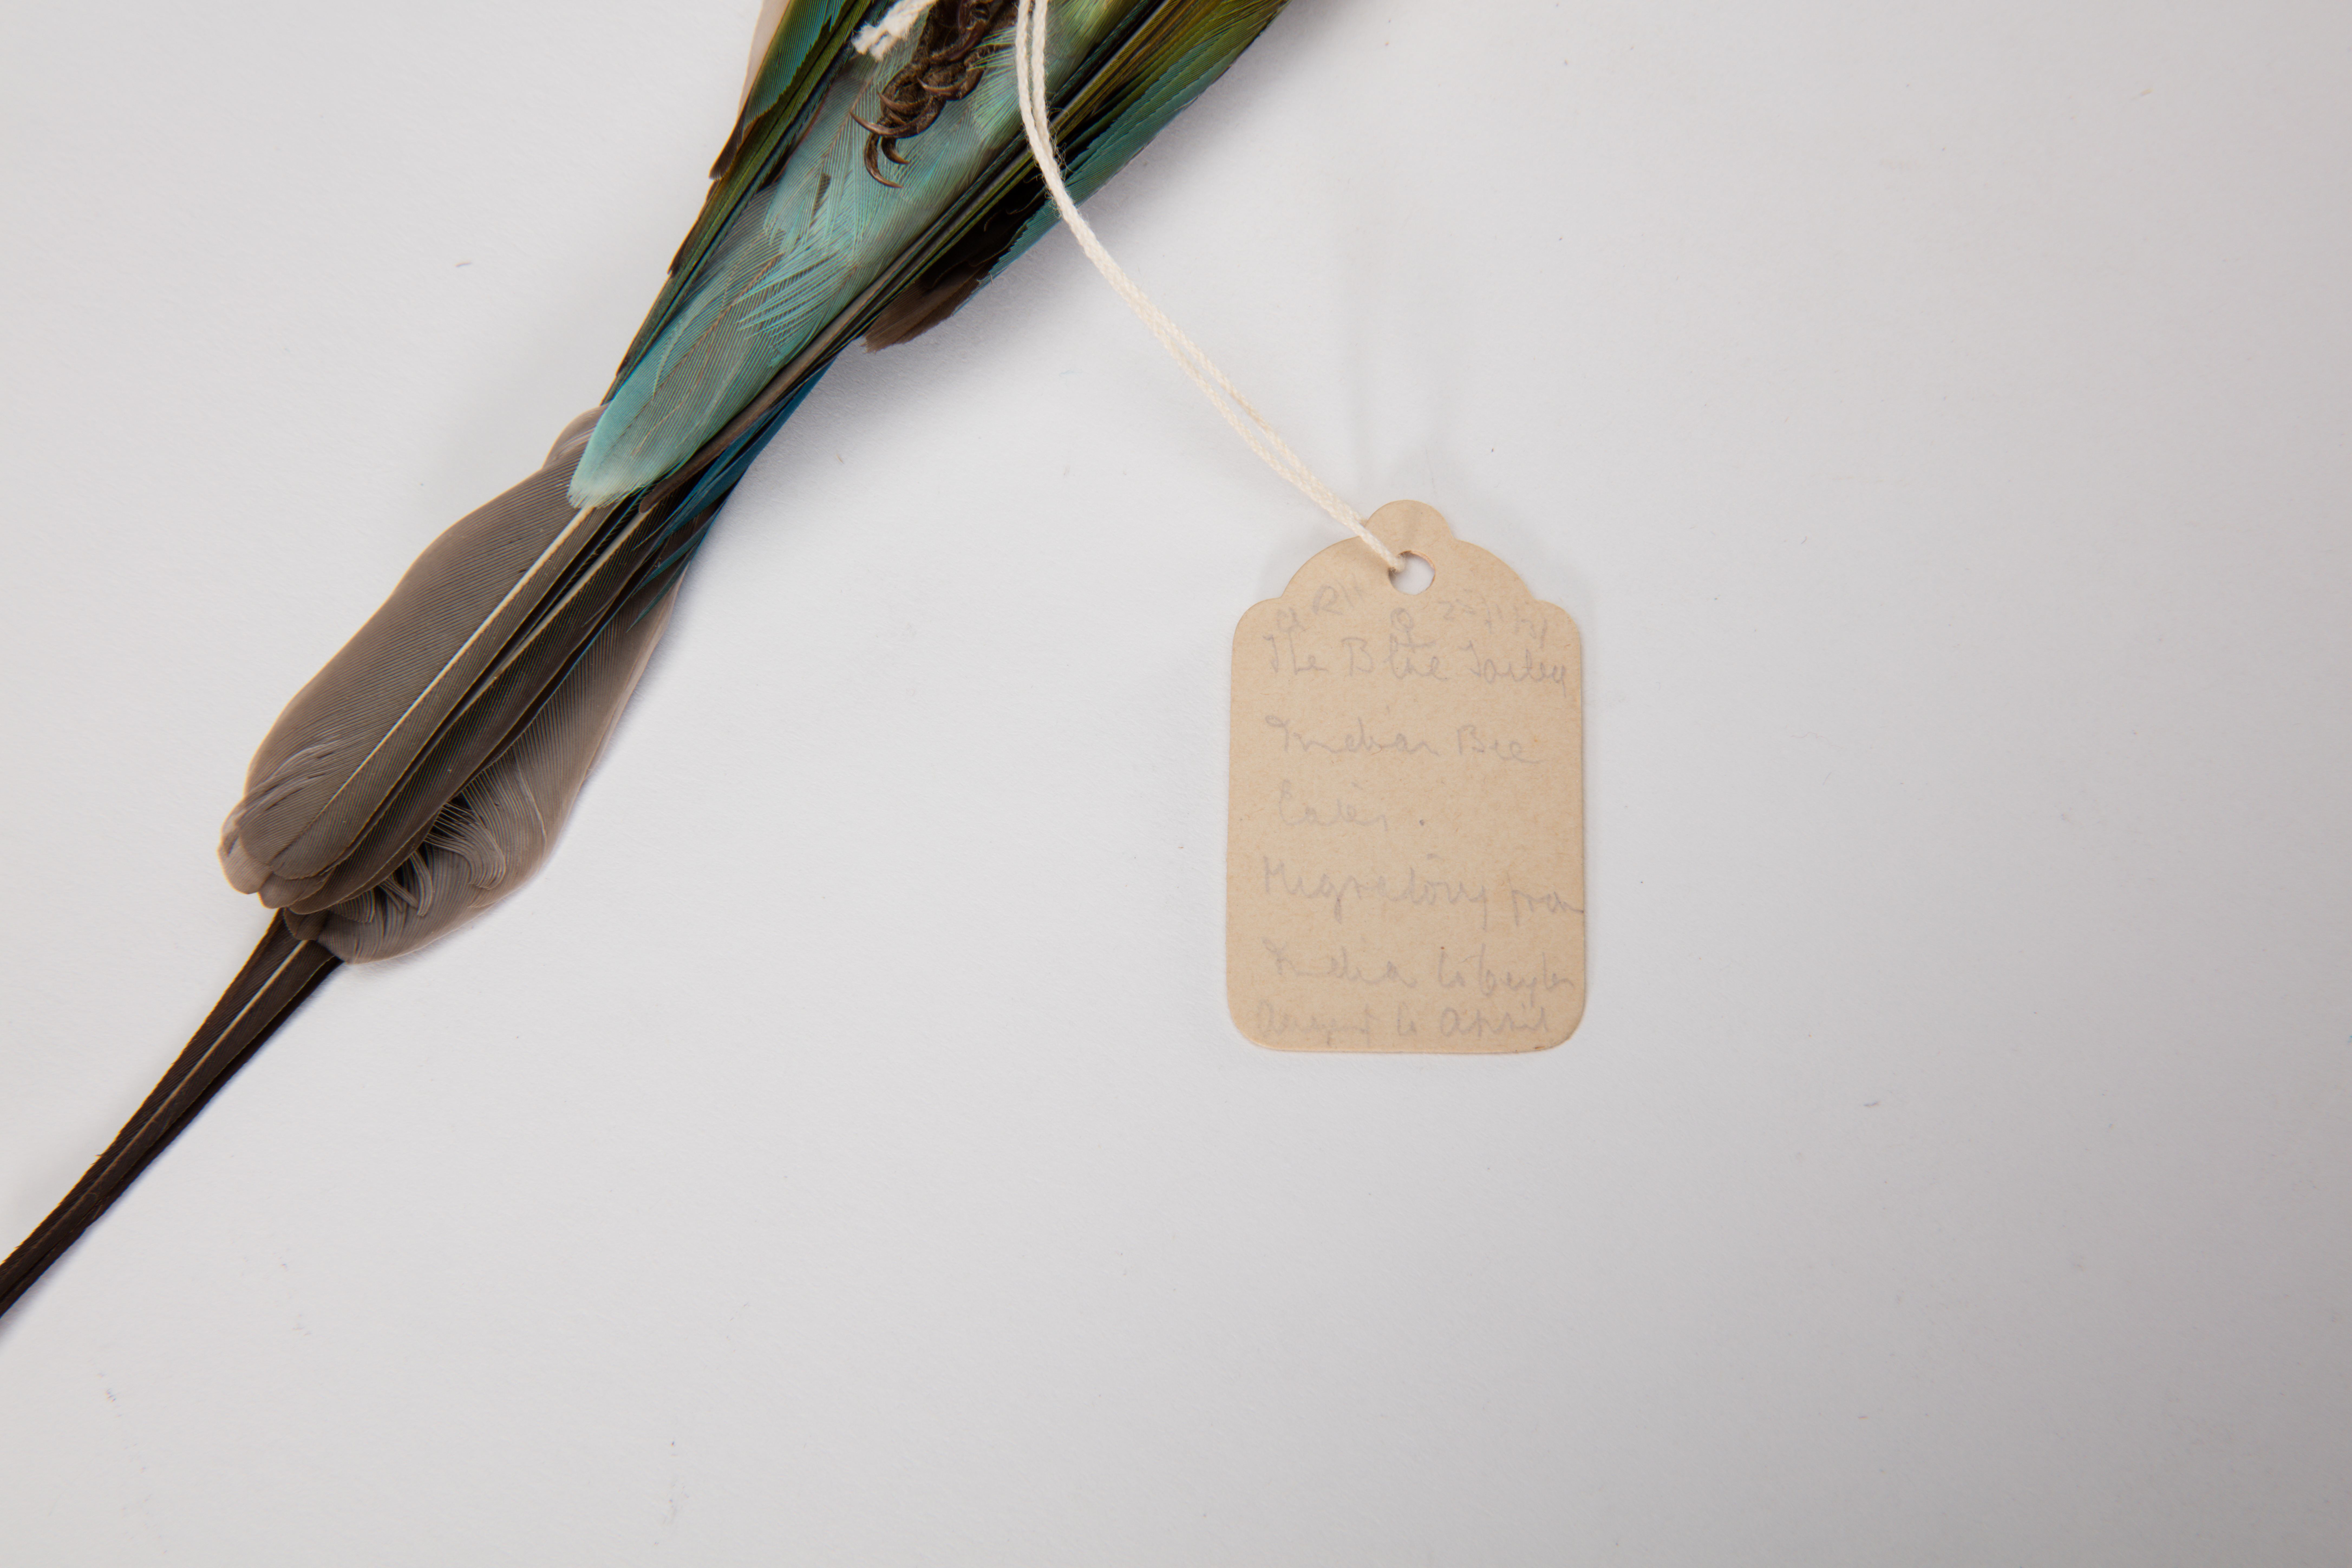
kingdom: Animalia
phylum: Chordata
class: Aves
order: Coraciiformes
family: Meropidae
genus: Merops
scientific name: Merops superciliosus
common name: Olive bee-eater
